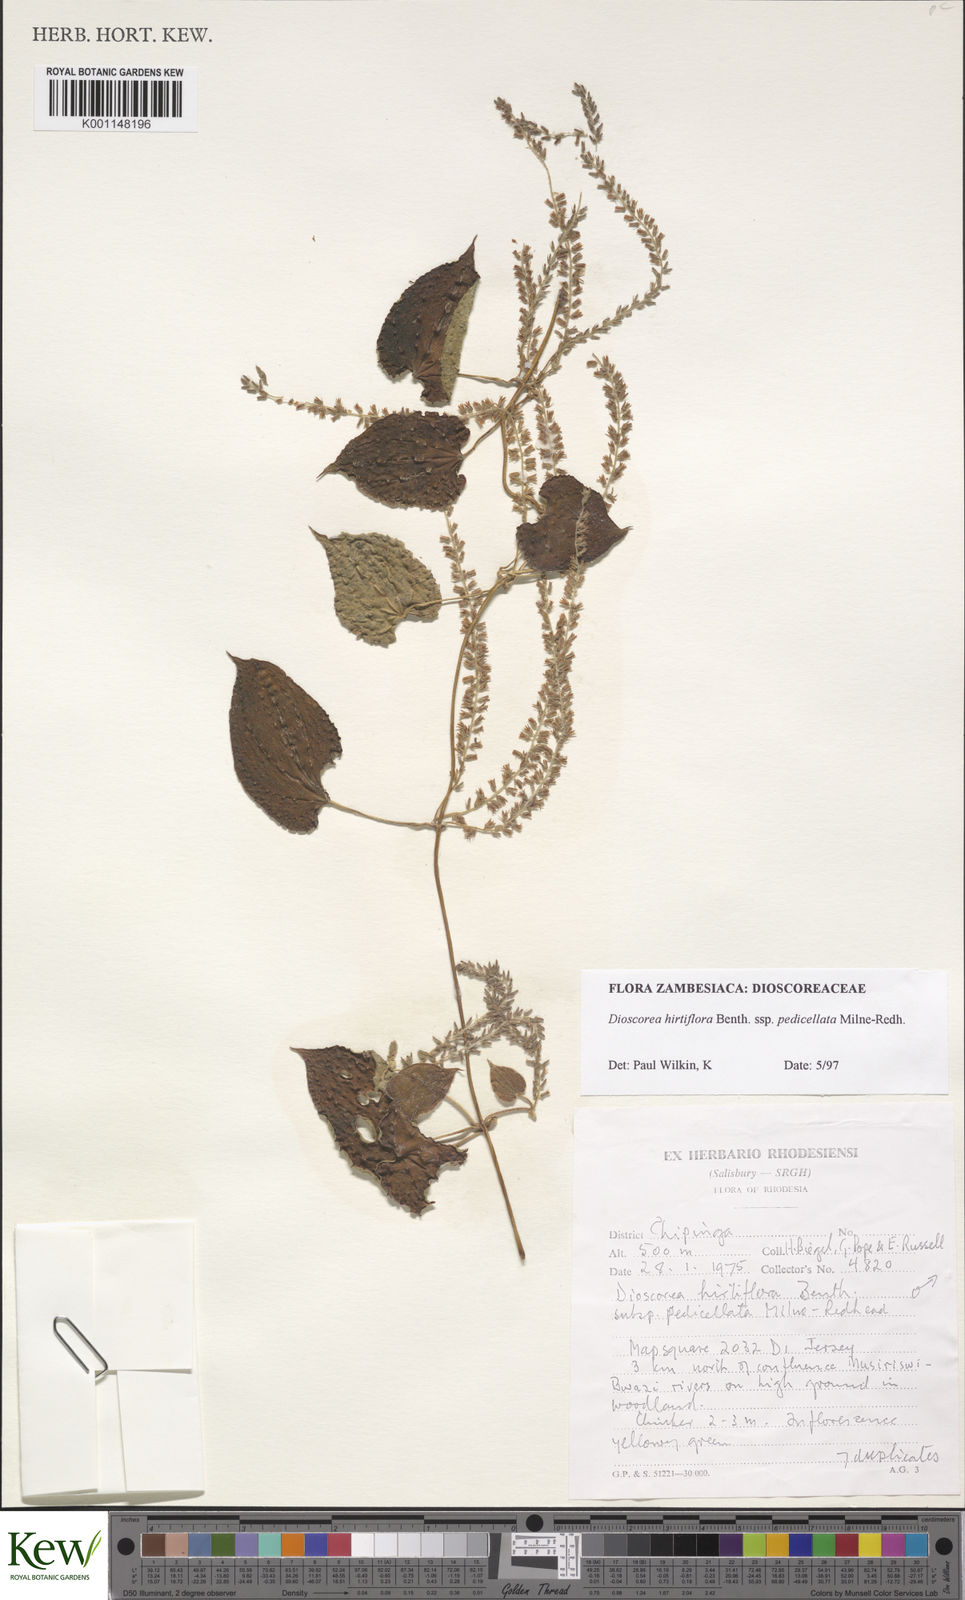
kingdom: Plantae
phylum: Tracheophyta
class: Liliopsida
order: Dioscoreales
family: Dioscoreaceae
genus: Dioscorea
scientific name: Dioscorea hirtiflora
